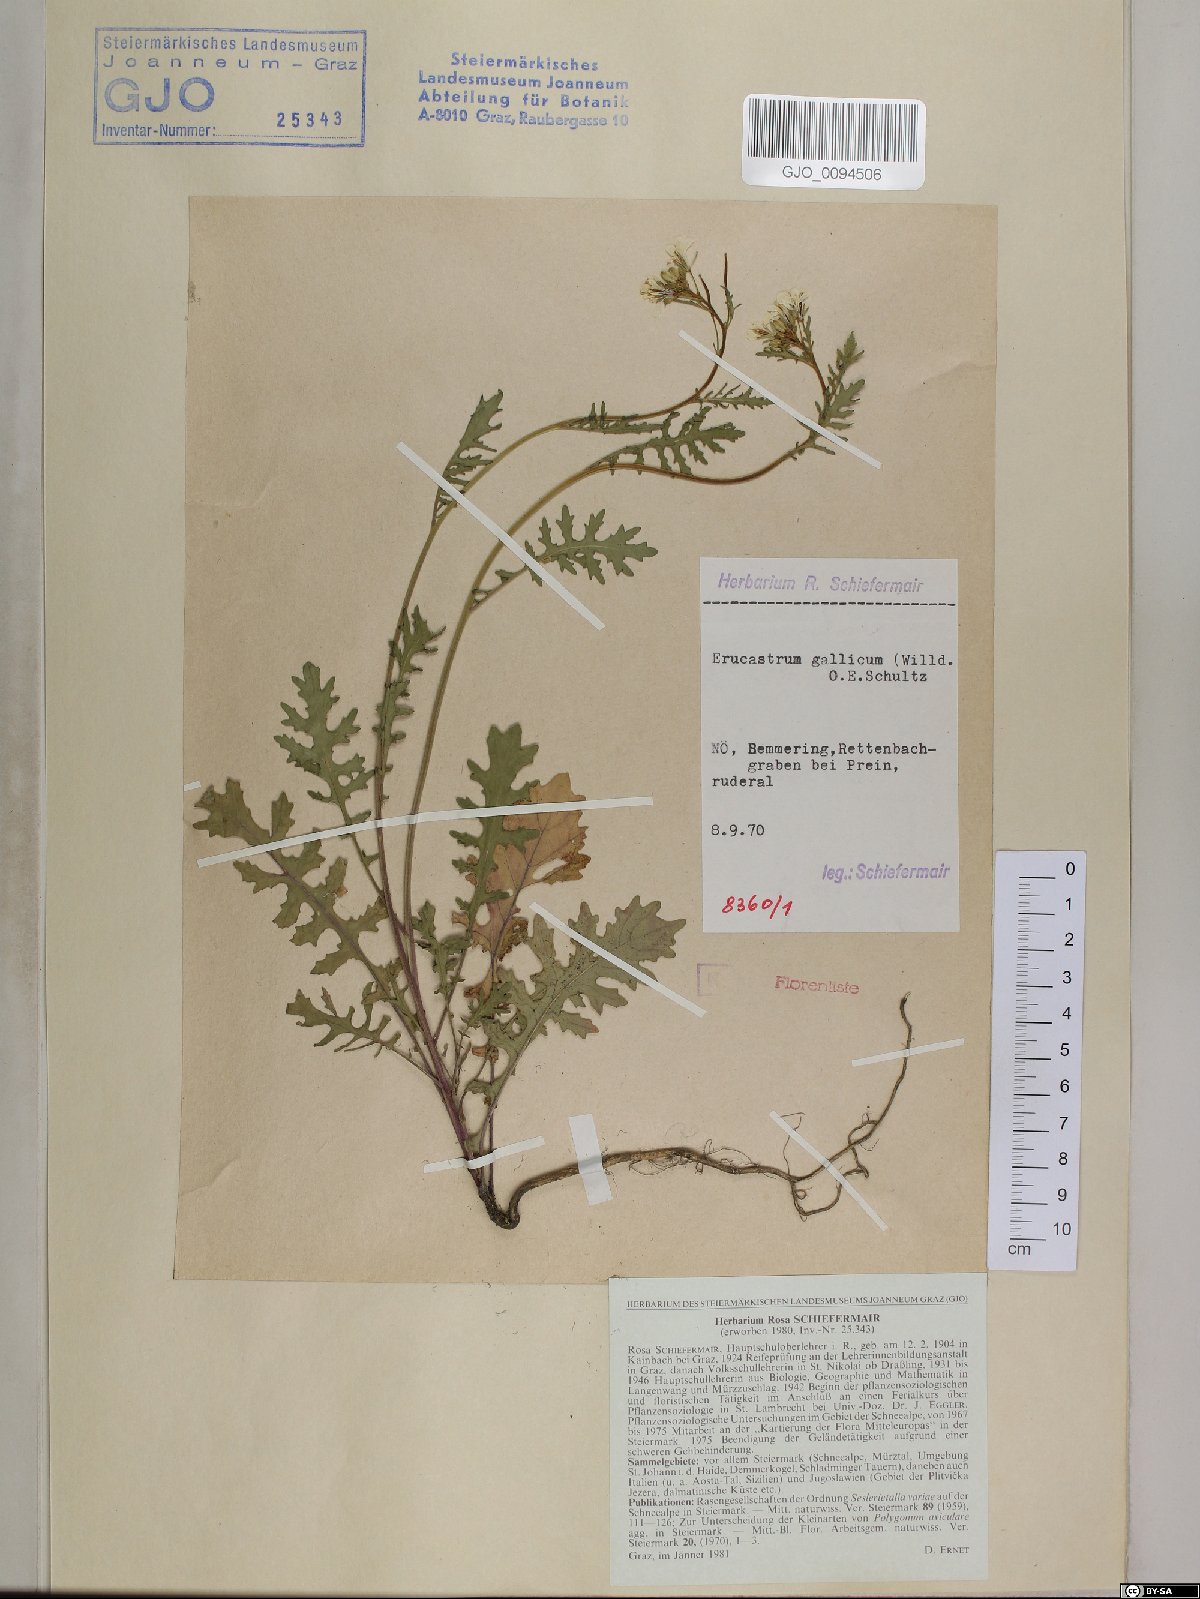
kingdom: Plantae
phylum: Tracheophyta
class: Magnoliopsida
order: Brassicales
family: Brassicaceae
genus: Erucastrum
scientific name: Erucastrum gallicum
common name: Hairy rocket
